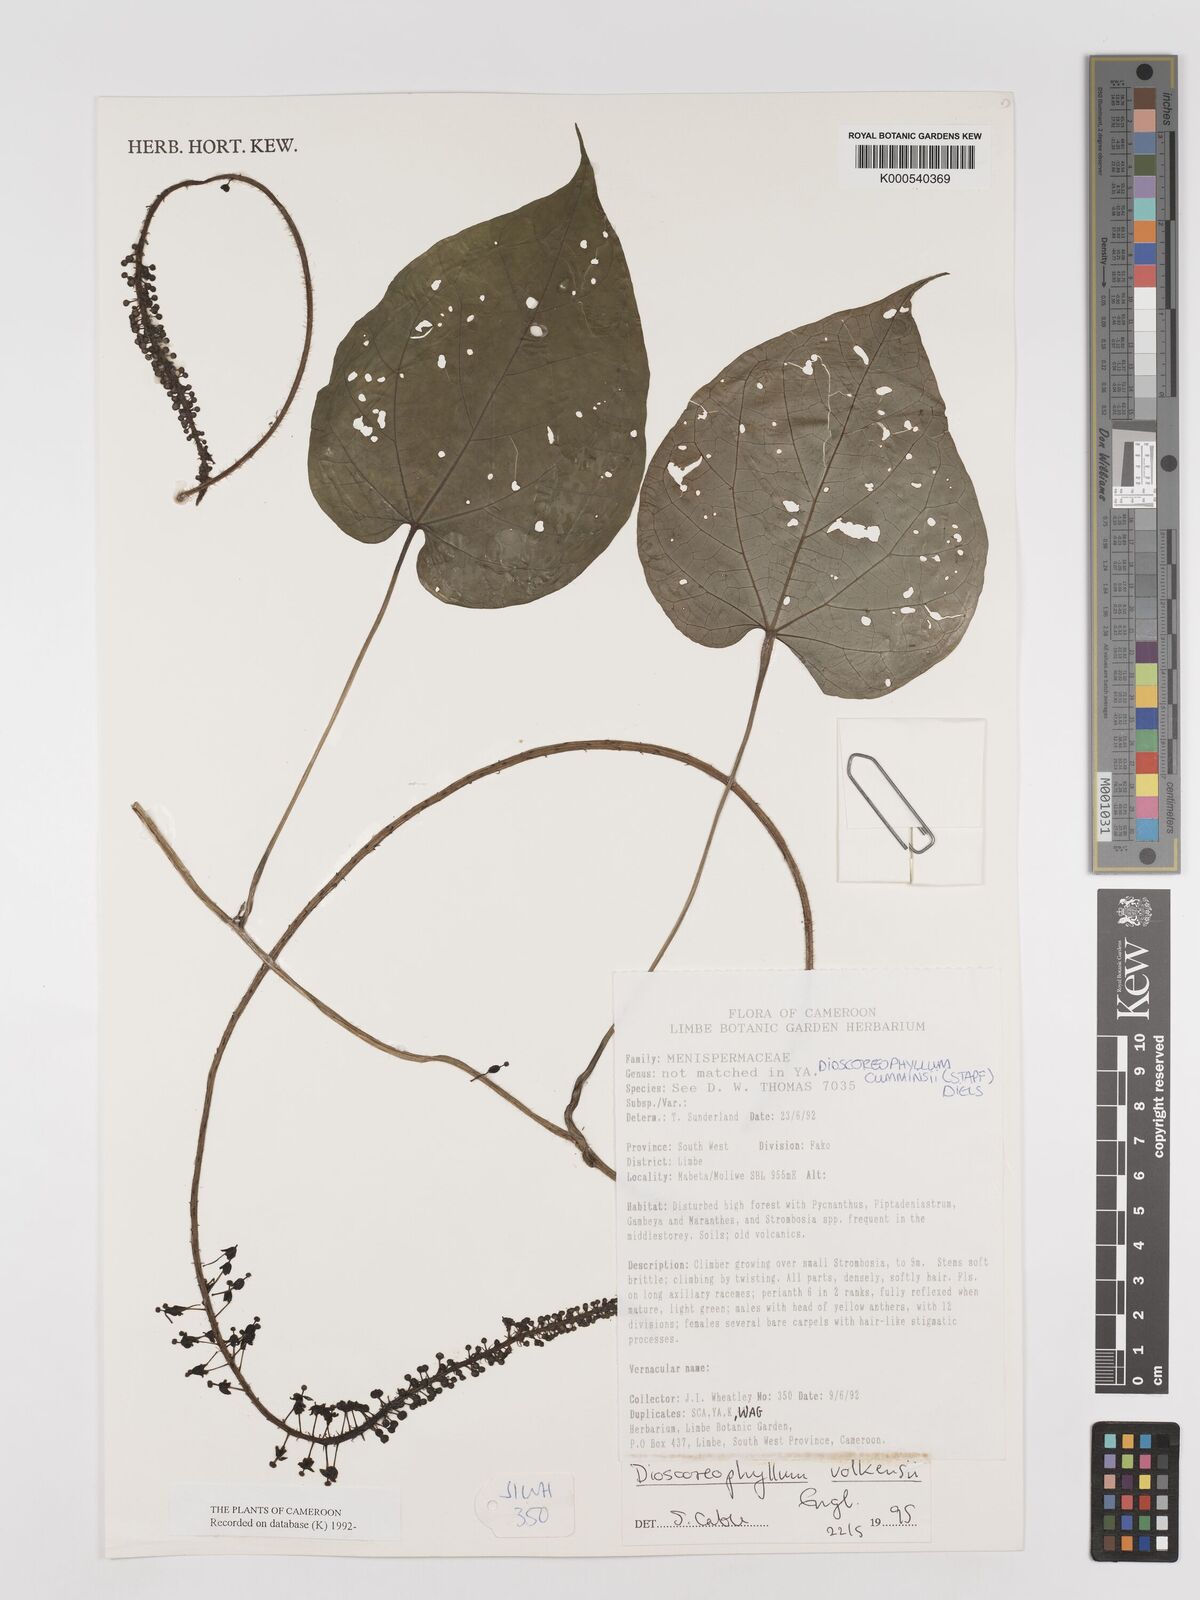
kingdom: Plantae
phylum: Tracheophyta
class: Magnoliopsida
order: Ranunculales
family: Menispermaceae
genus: Dioscoreophyllum
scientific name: Dioscoreophyllum
